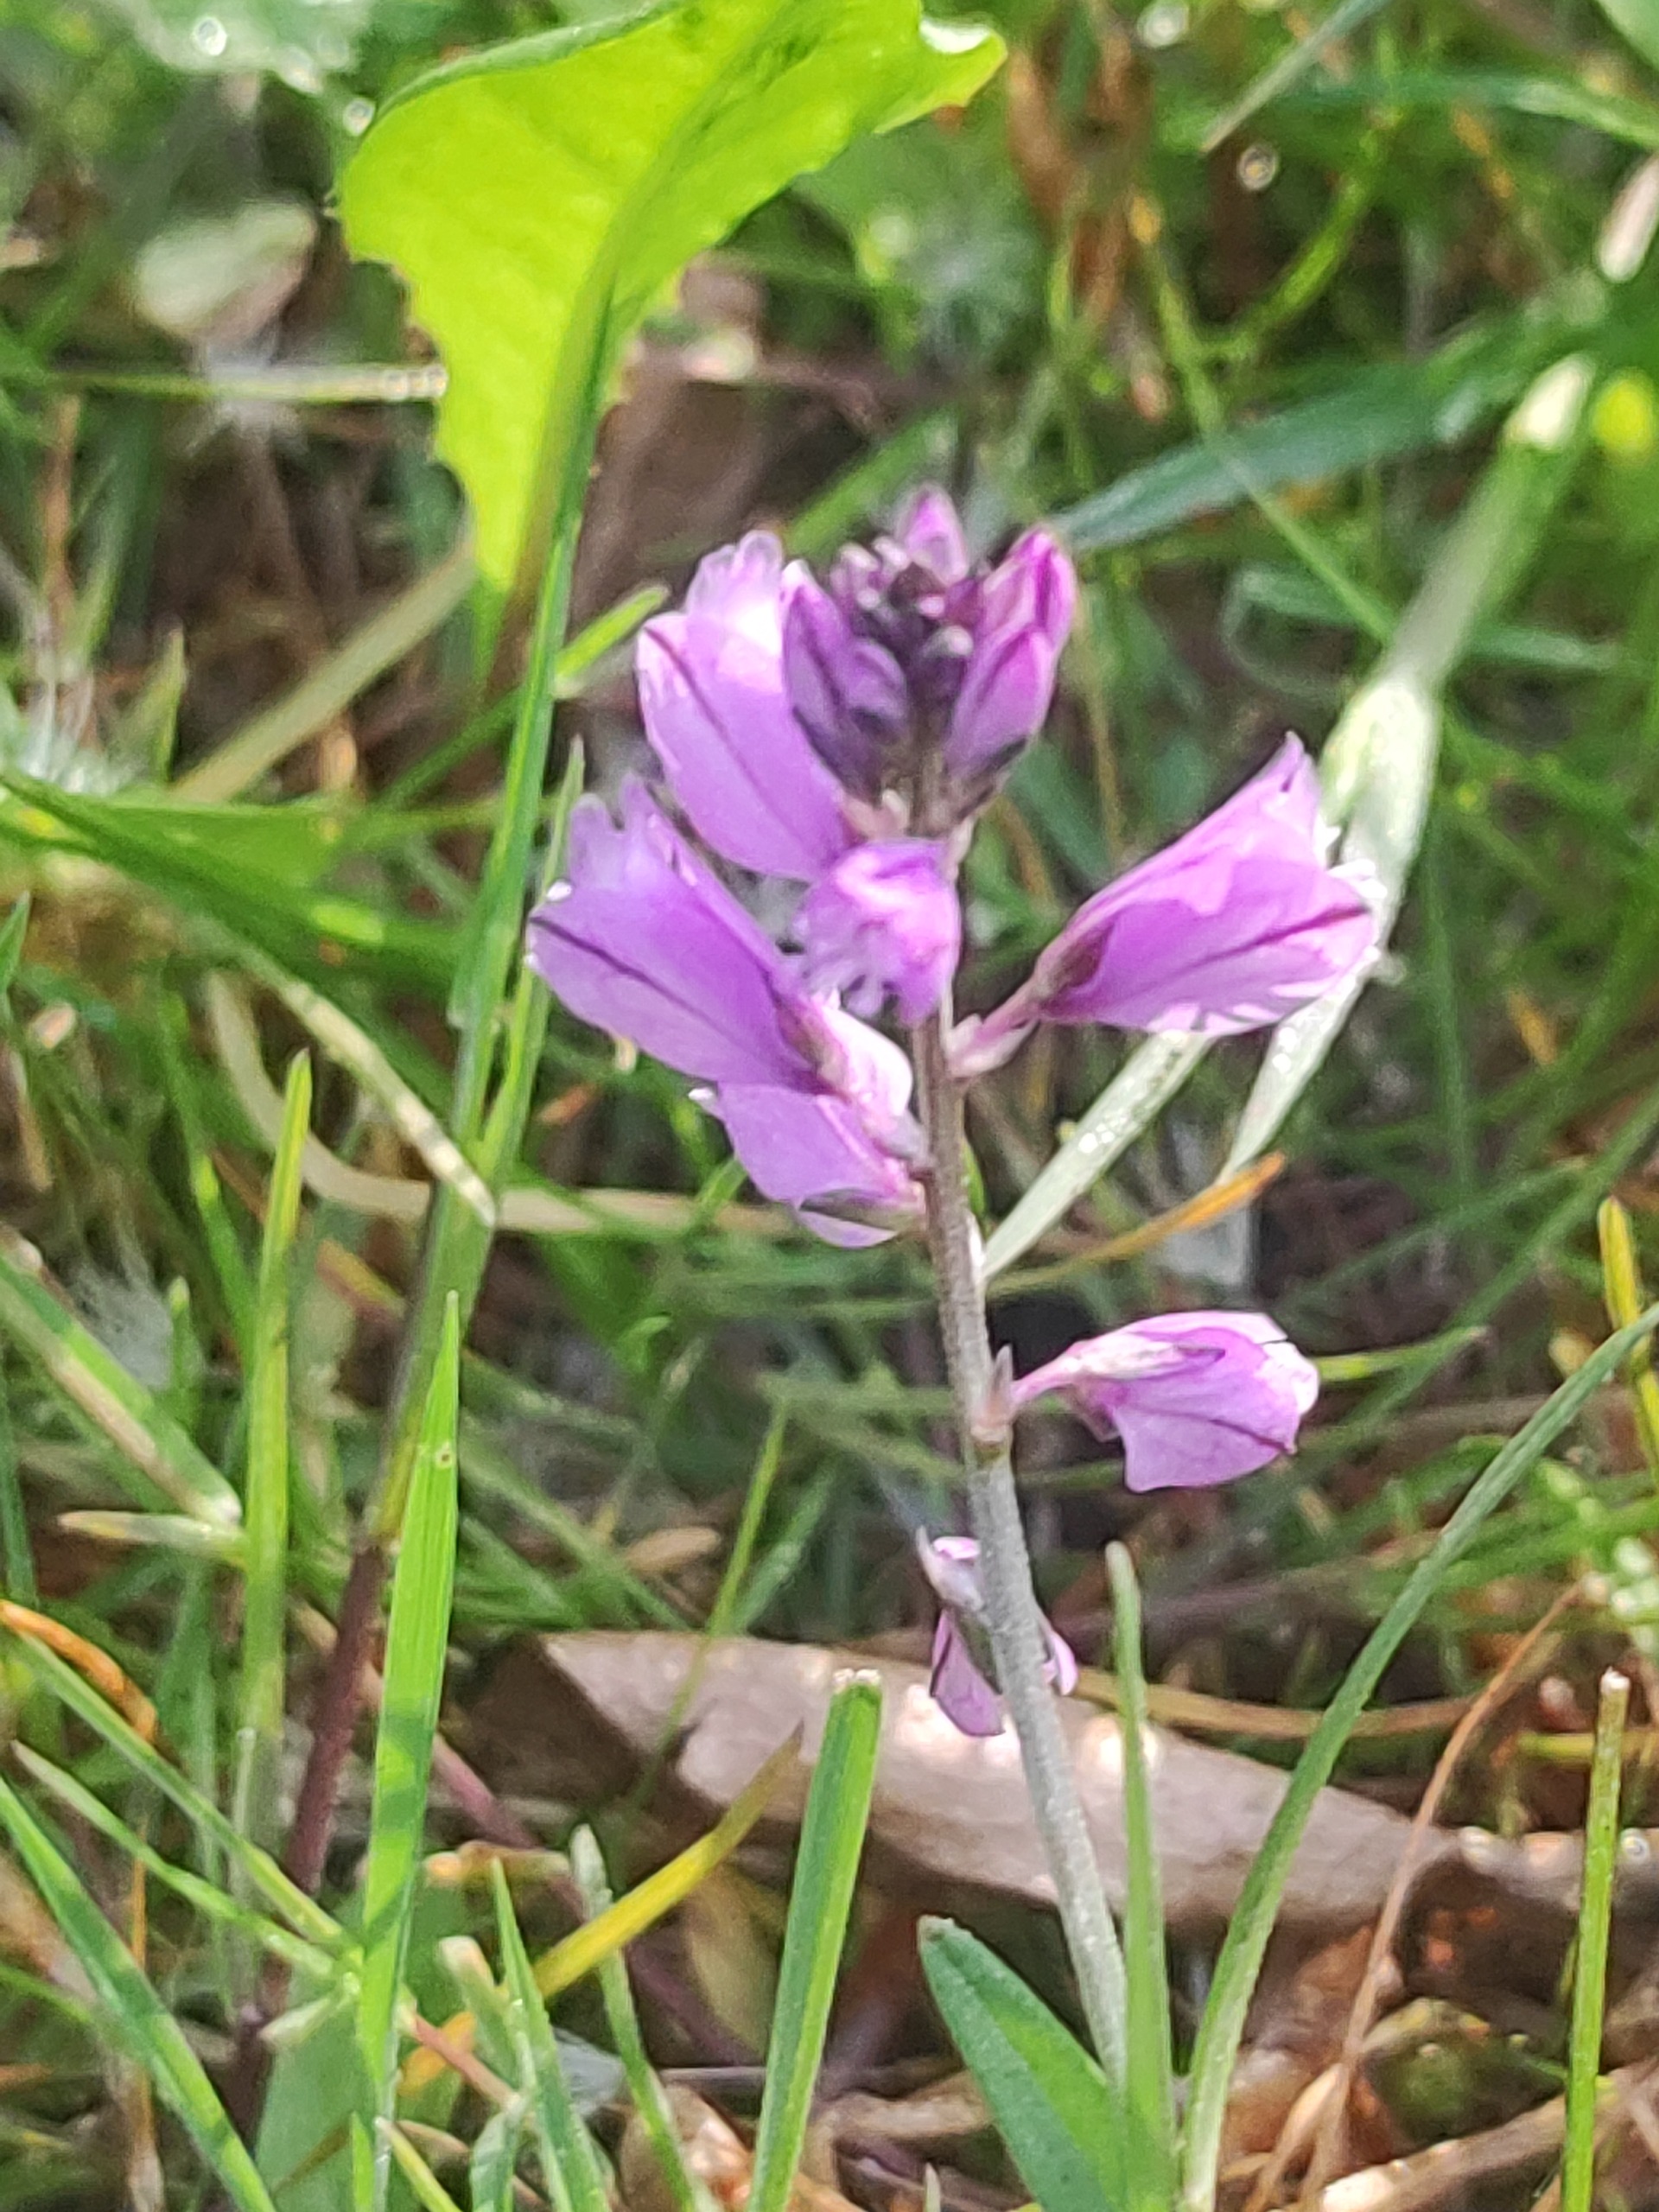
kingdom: Plantae
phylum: Tracheophyta
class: Magnoliopsida
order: Fabales
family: Polygalaceae
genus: Polygala
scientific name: Polygala vulgaris
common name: Almindelig mælkeurt
